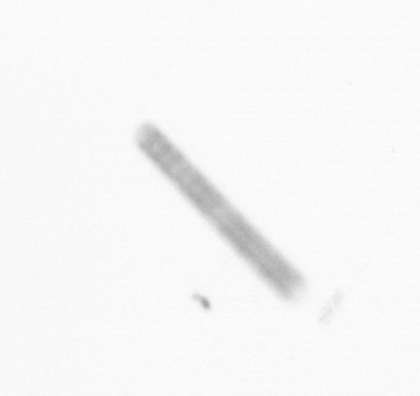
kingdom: Chromista
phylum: Ochrophyta
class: Bacillariophyceae
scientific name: Bacillariophyceae
